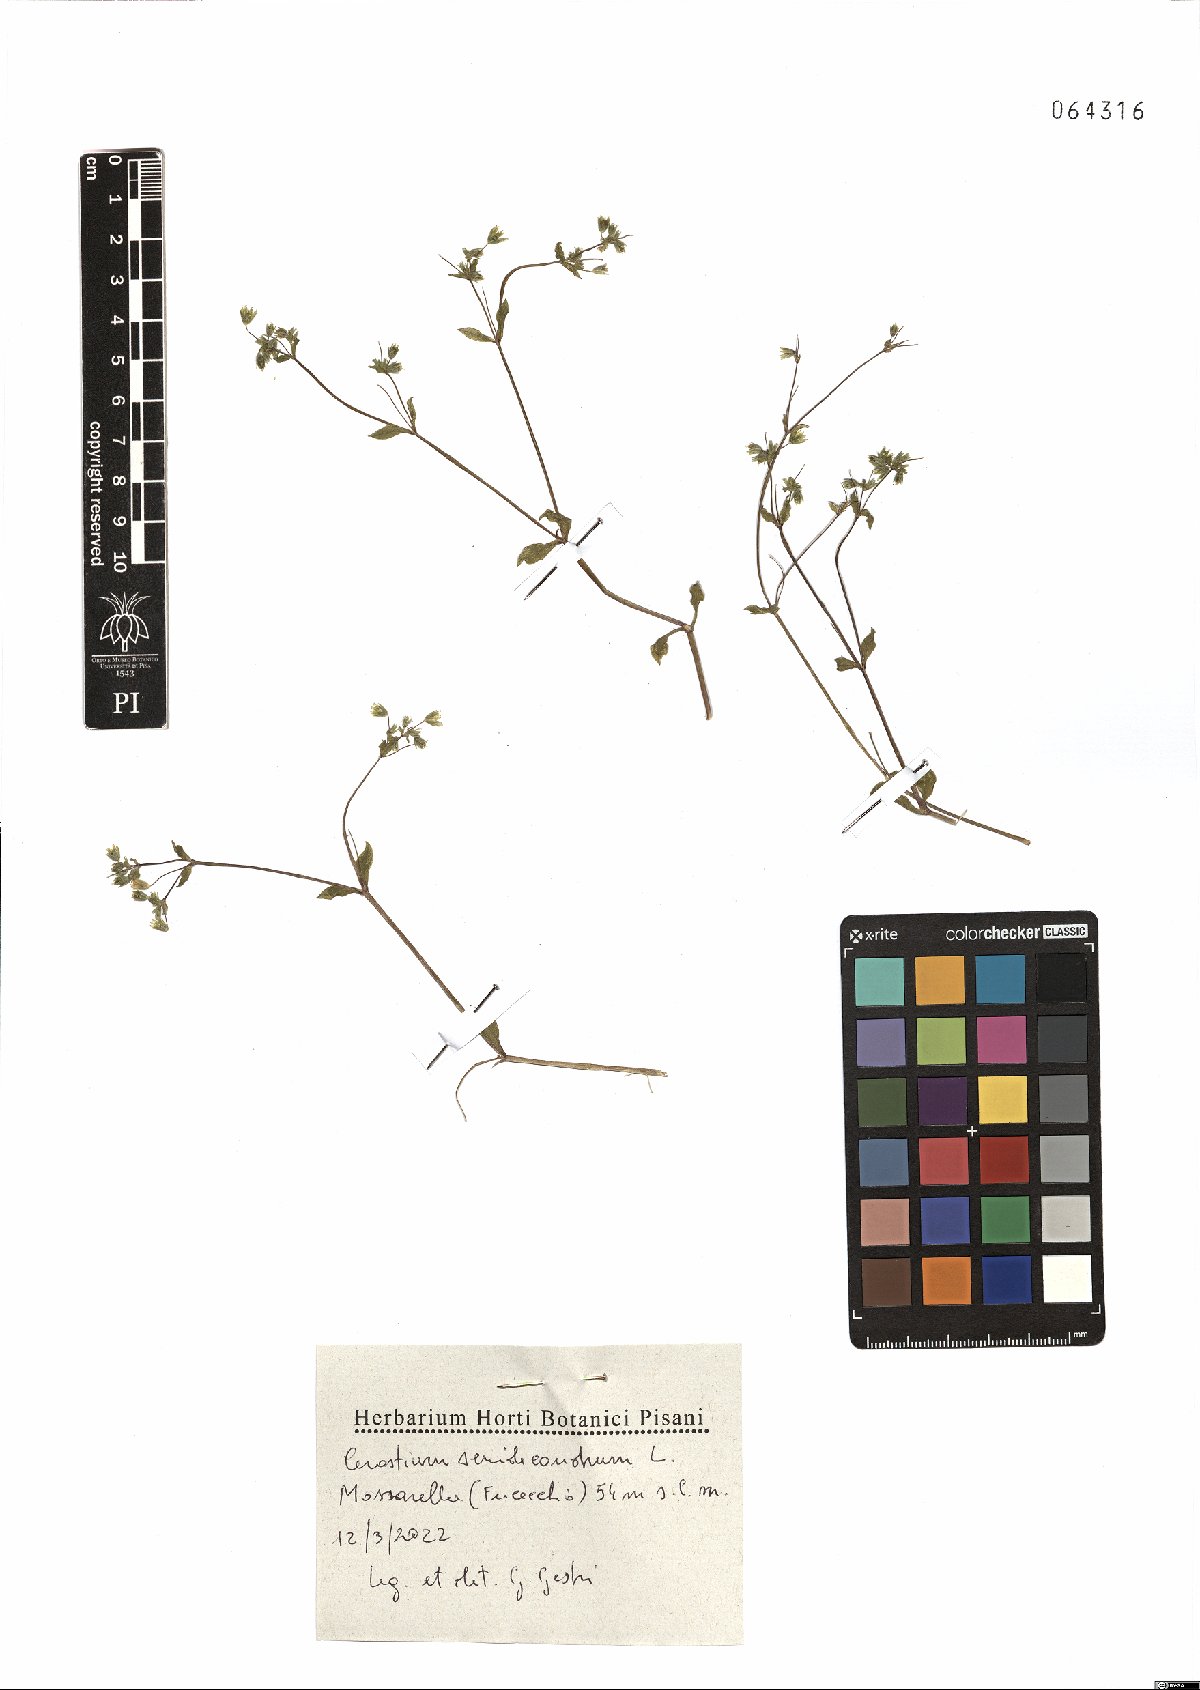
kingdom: Plantae
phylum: Tracheophyta
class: Magnoliopsida
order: Caryophyllales
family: Caryophyllaceae
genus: Cerastium
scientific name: Cerastium semidecandrum
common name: Little mouse-ear
